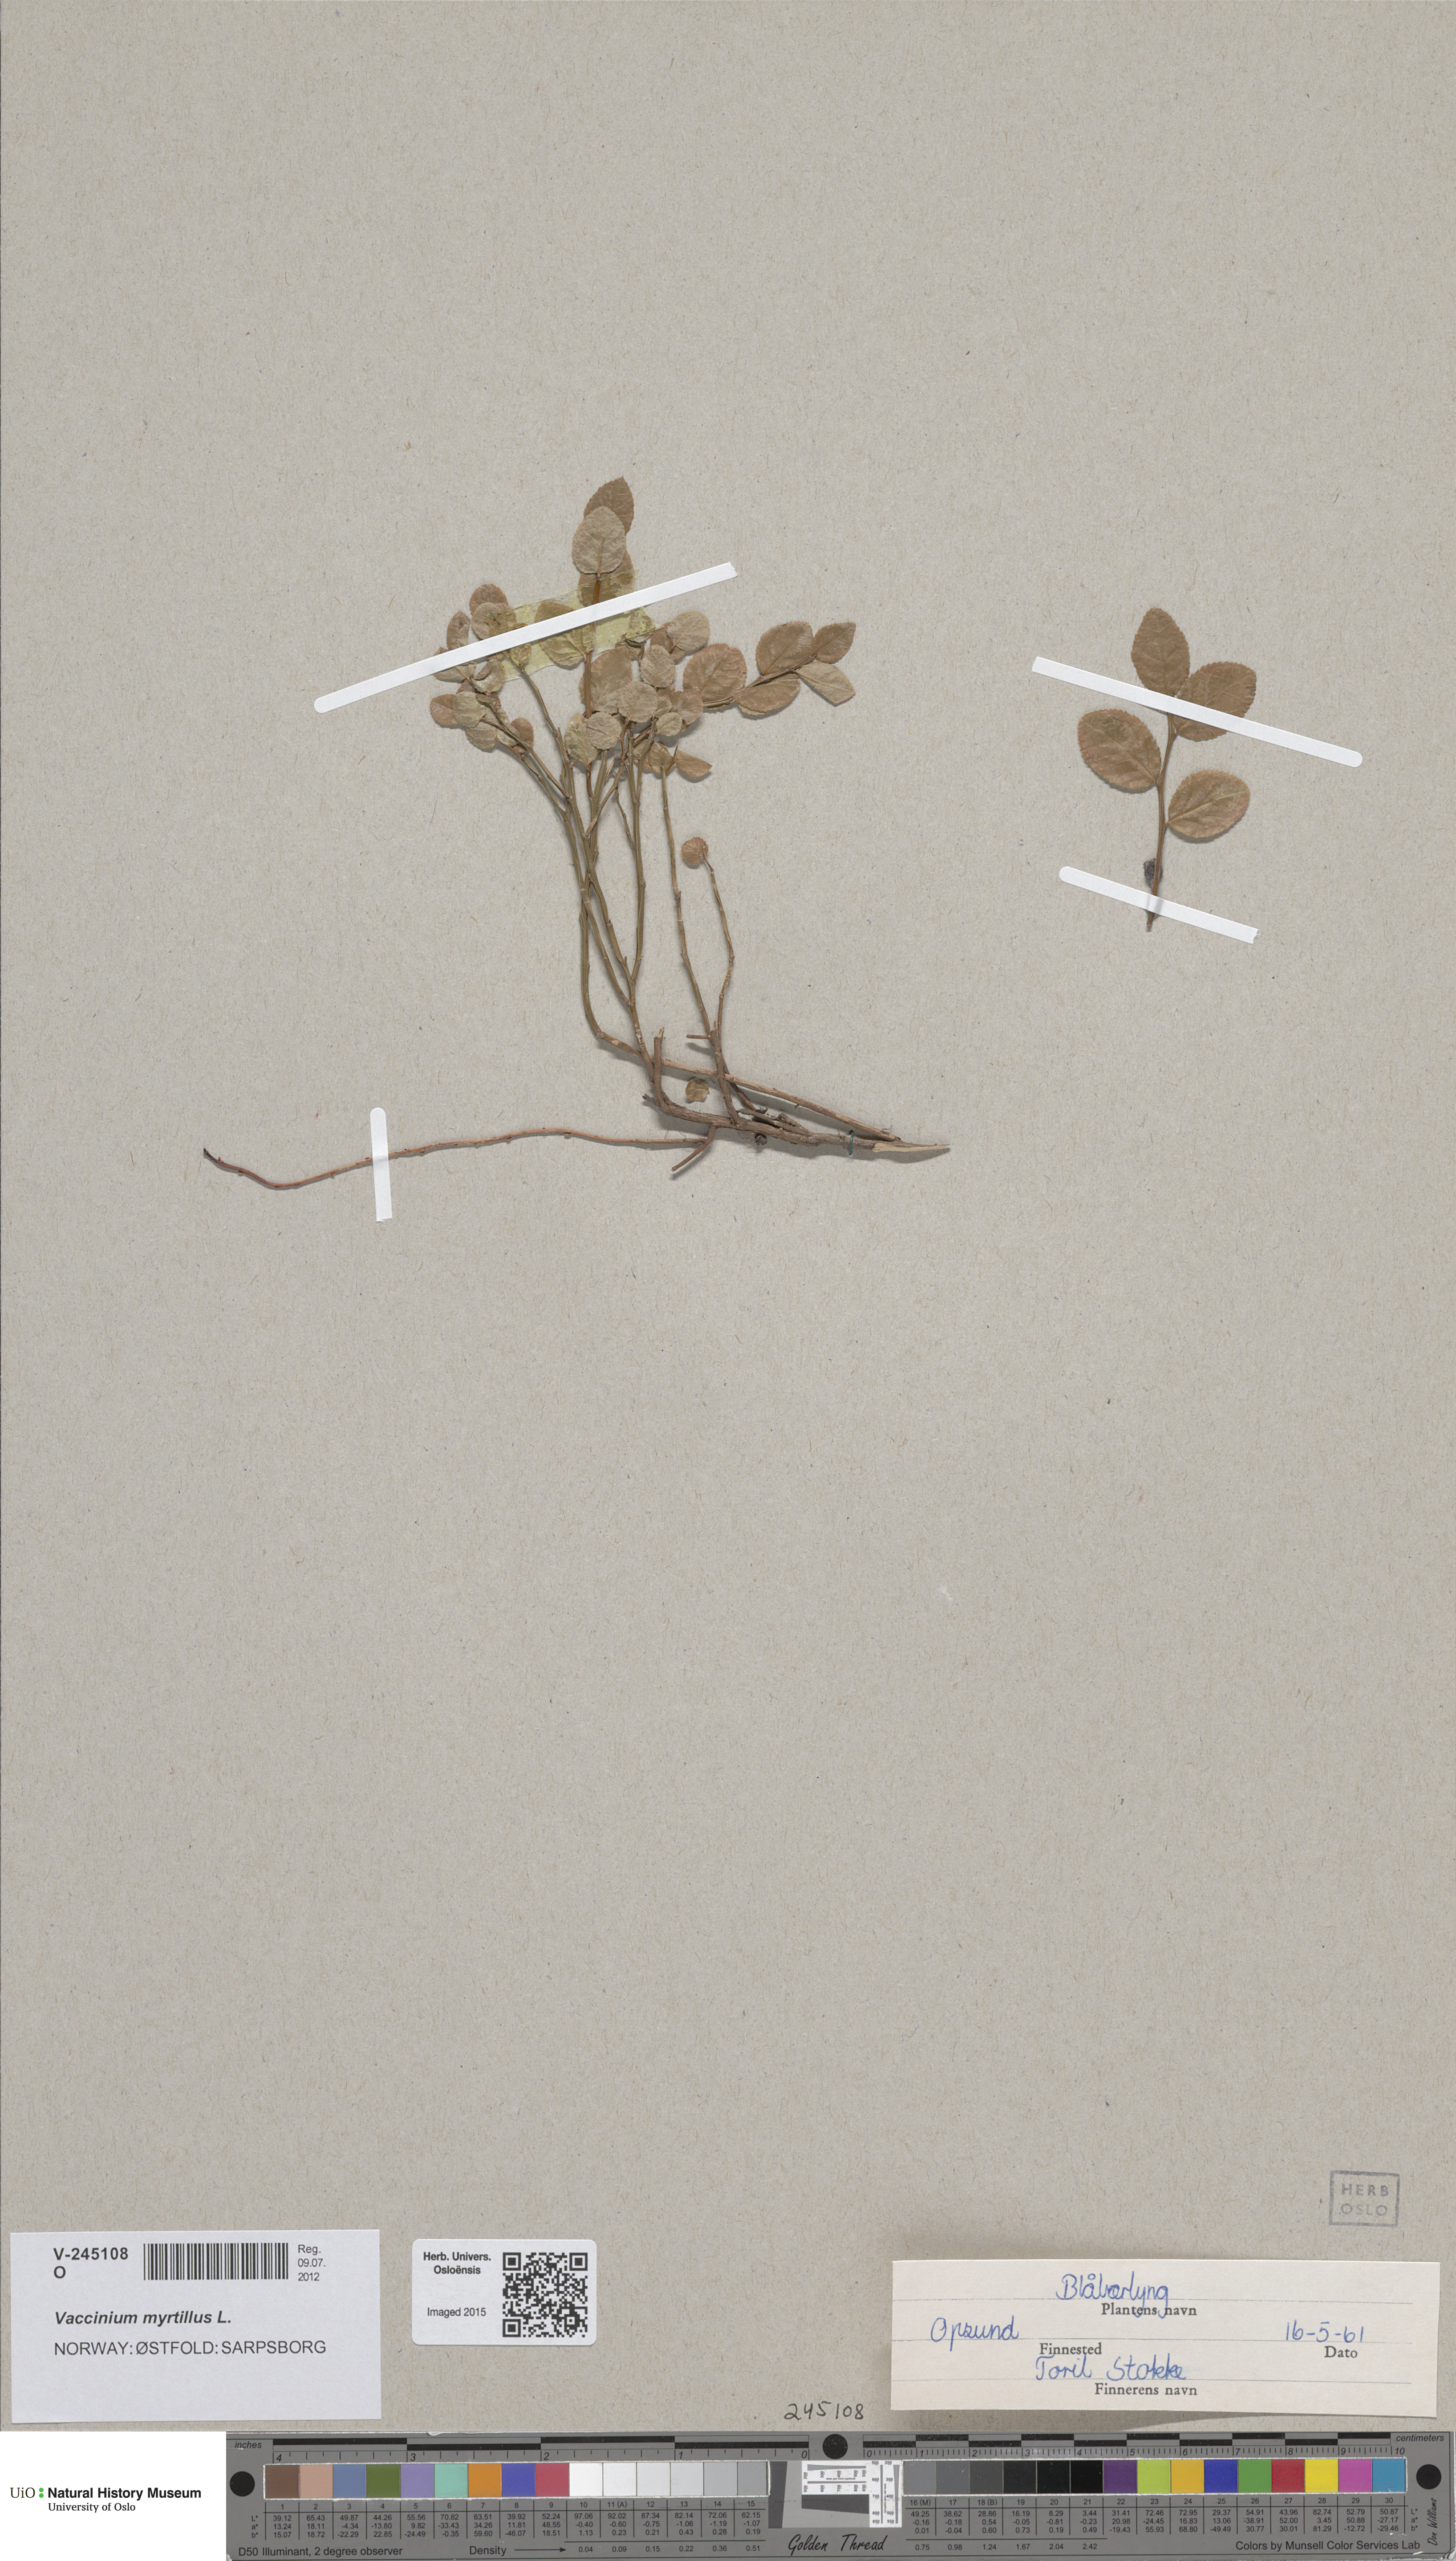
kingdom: Plantae
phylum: Tracheophyta
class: Magnoliopsida
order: Ericales
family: Ericaceae
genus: Vaccinium
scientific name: Vaccinium myrtillus
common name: Bilberry
